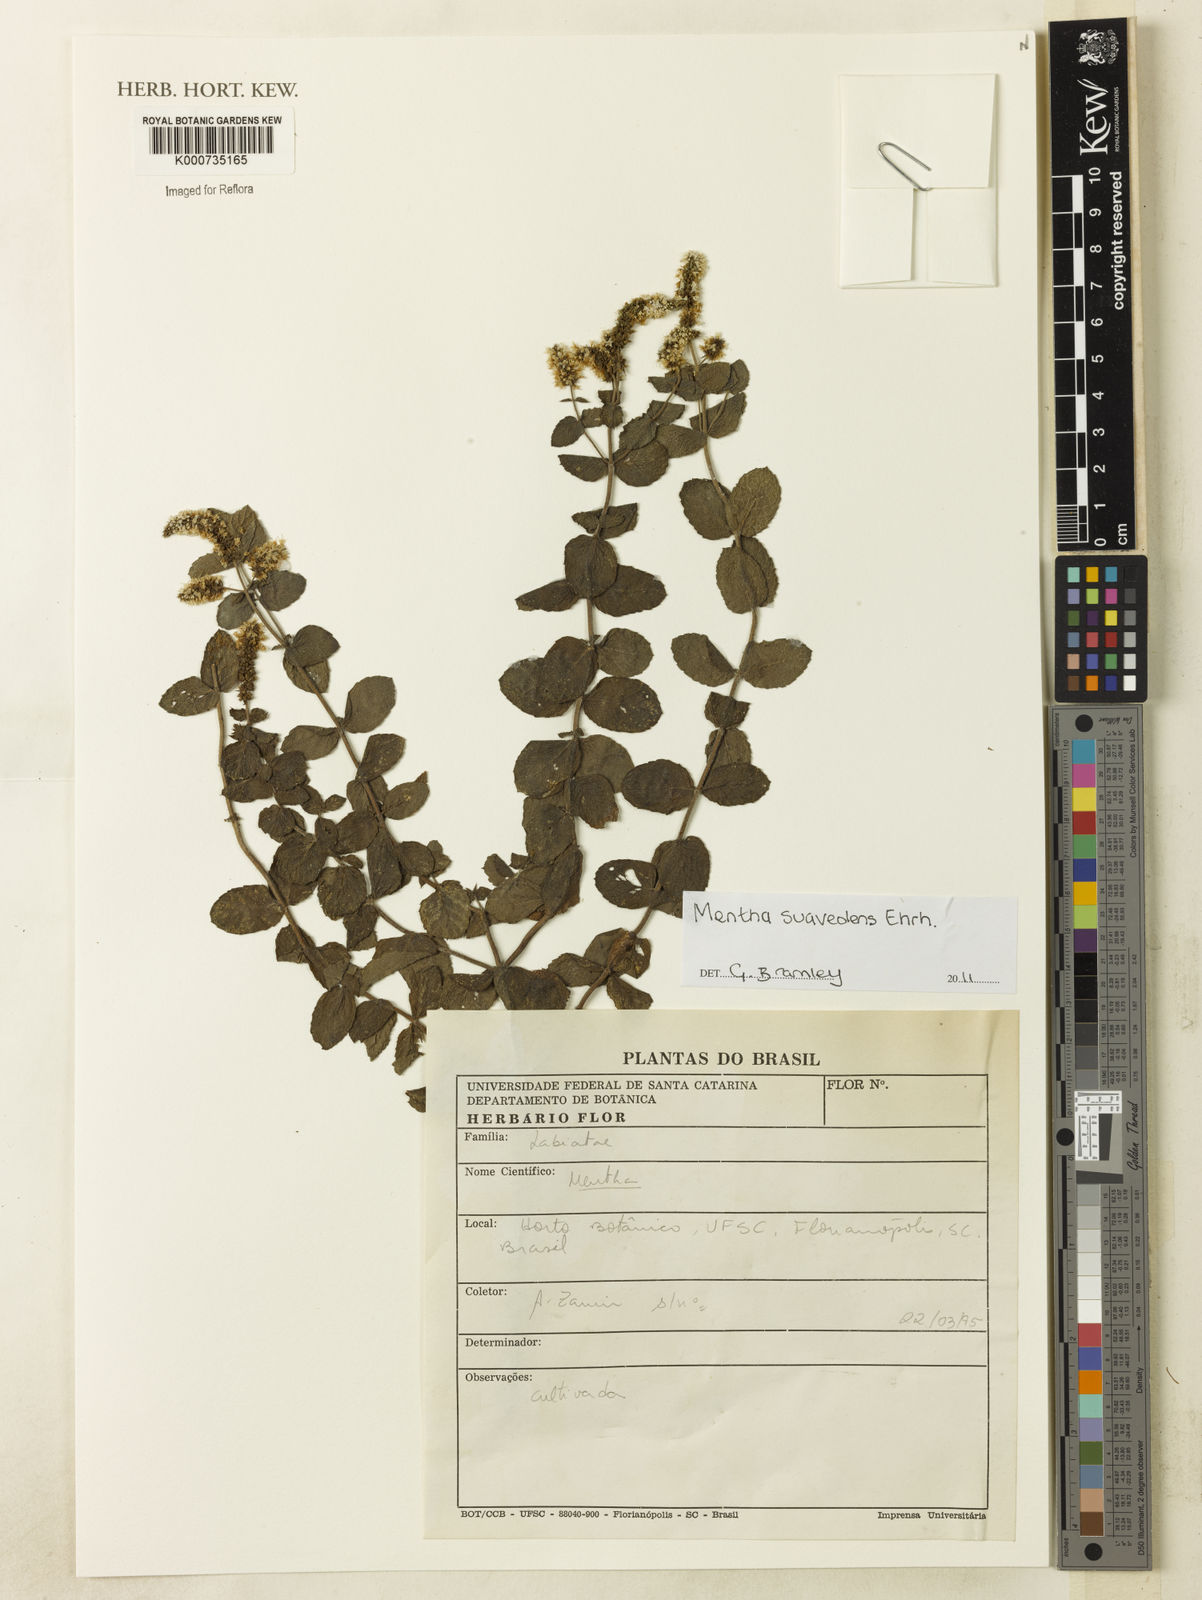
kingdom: Plantae
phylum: Tracheophyta
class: Magnoliopsida
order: Lamiales
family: Lamiaceae
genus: Mentha
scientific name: Mentha suaveolens
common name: Apple mint
